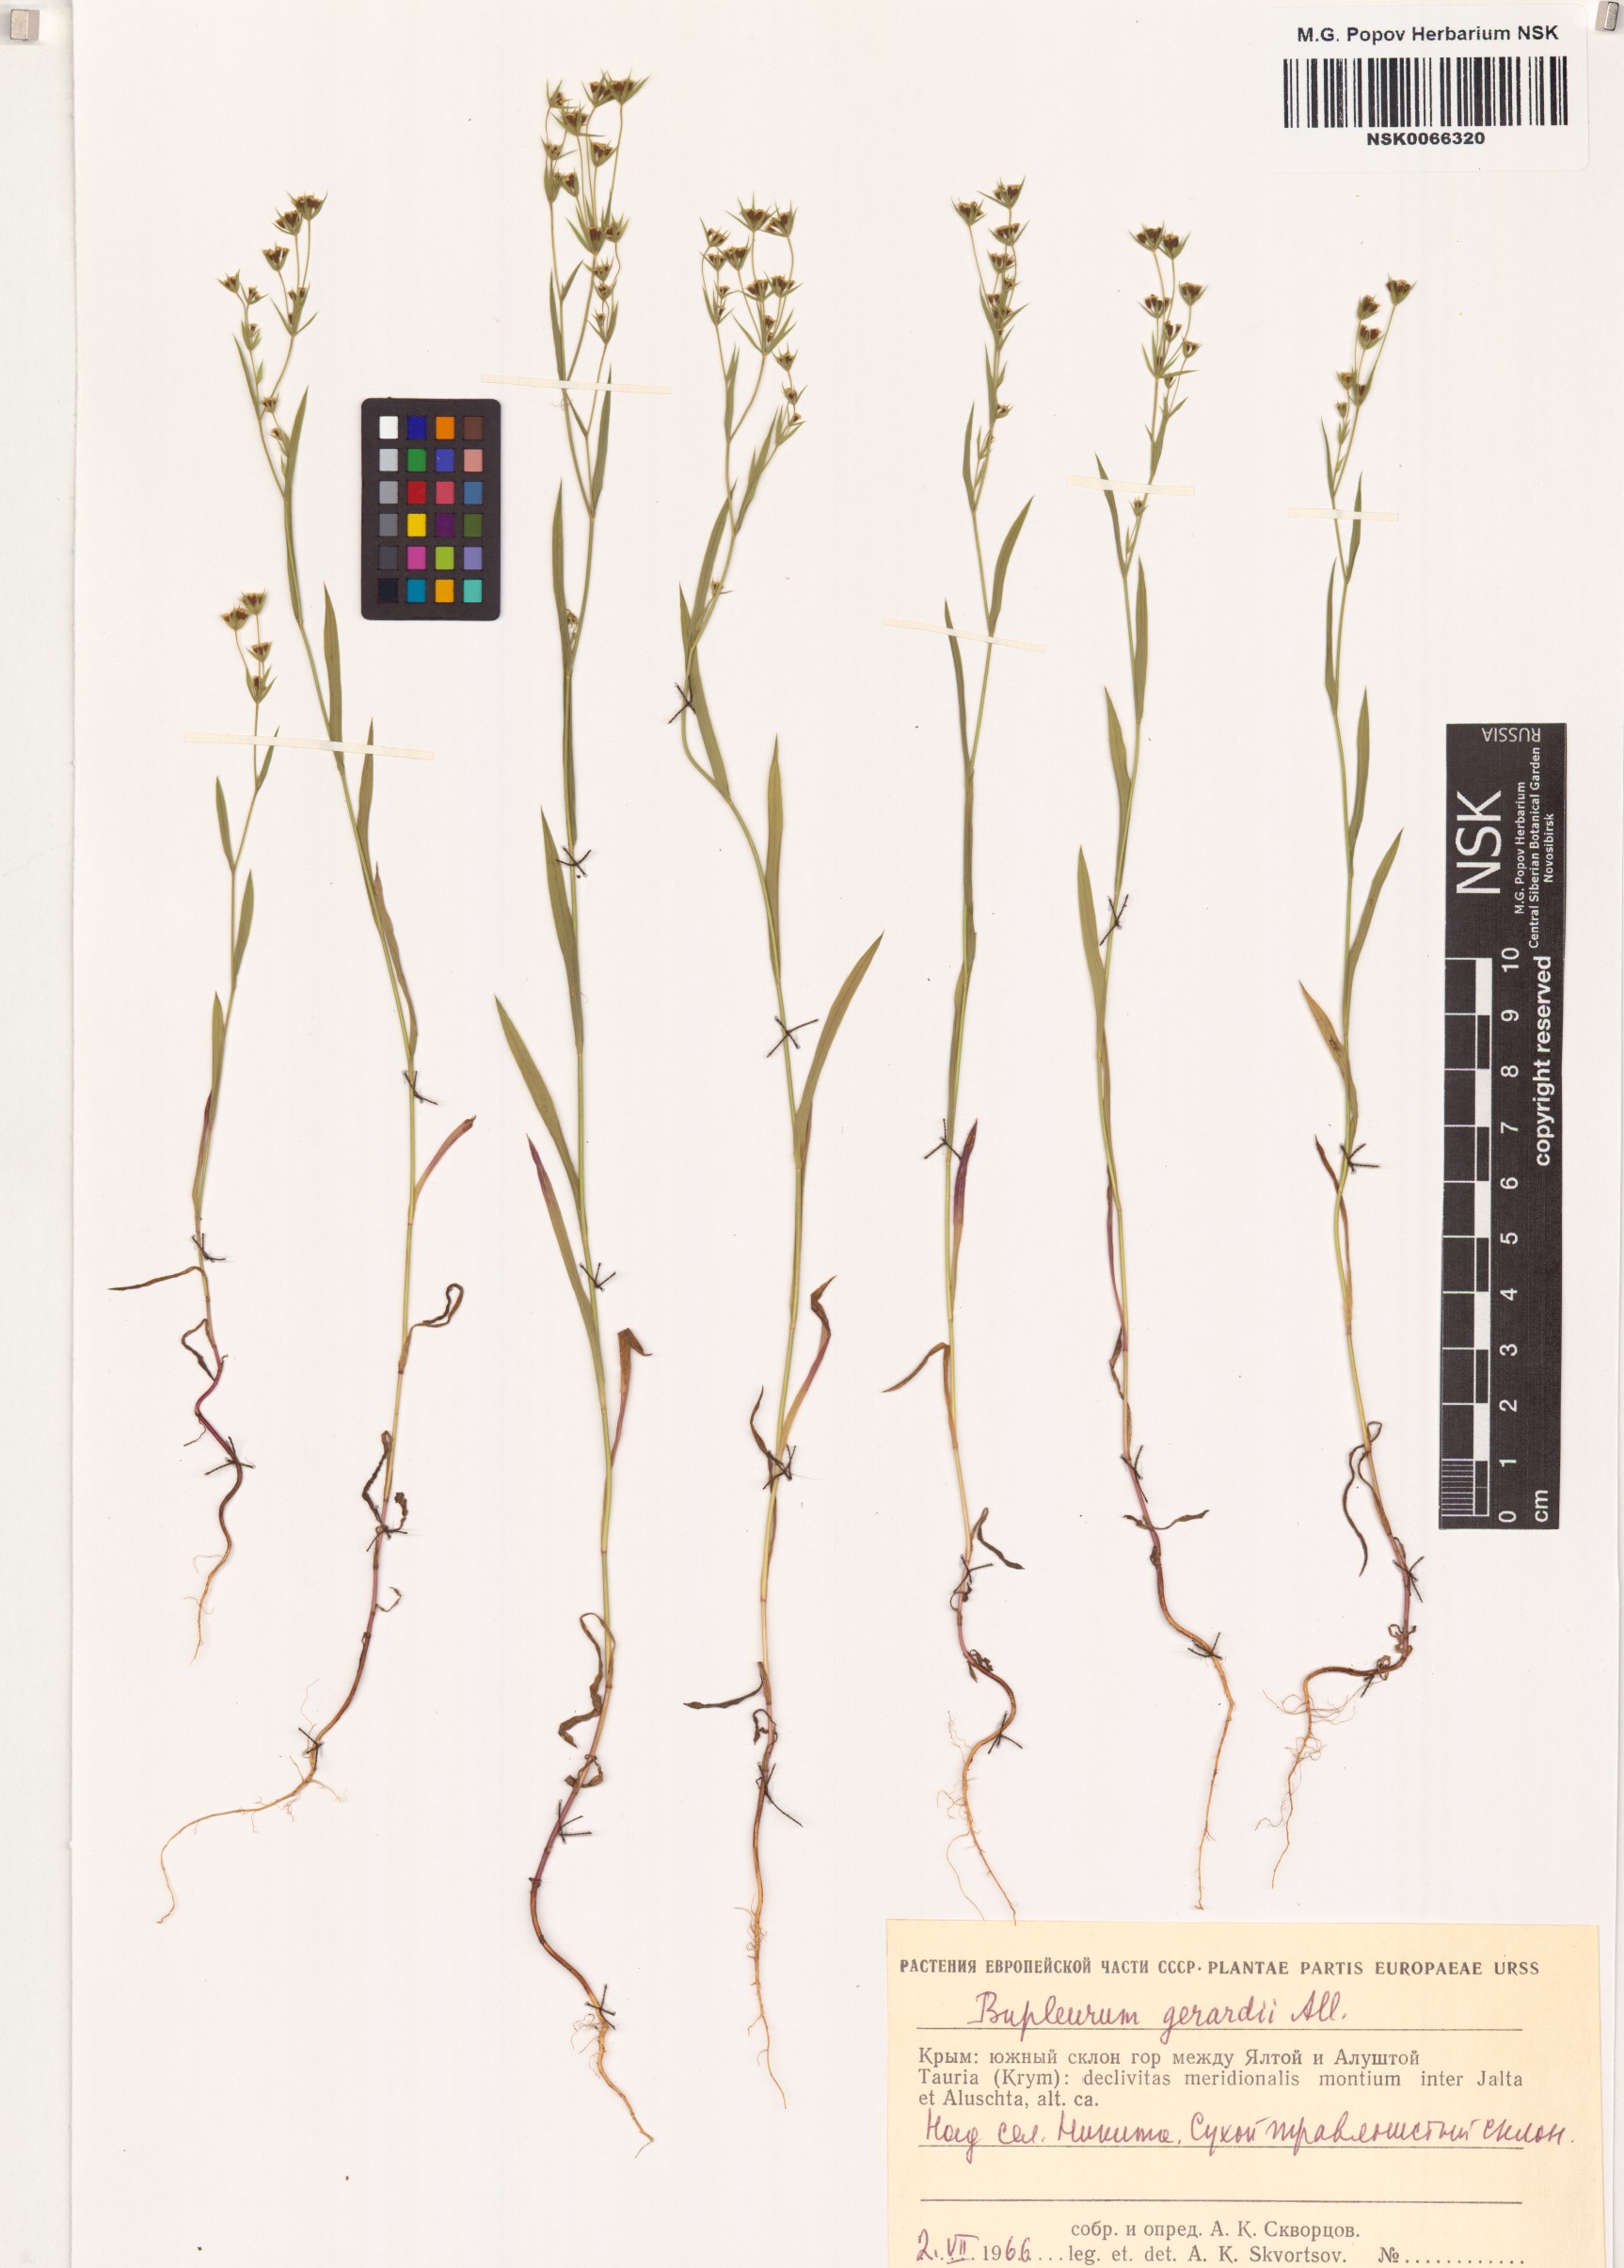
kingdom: Plantae
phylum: Tracheophyta
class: Magnoliopsida
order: Apiales
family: Apiaceae
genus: Bupleurum
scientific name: Bupleurum gerardi
